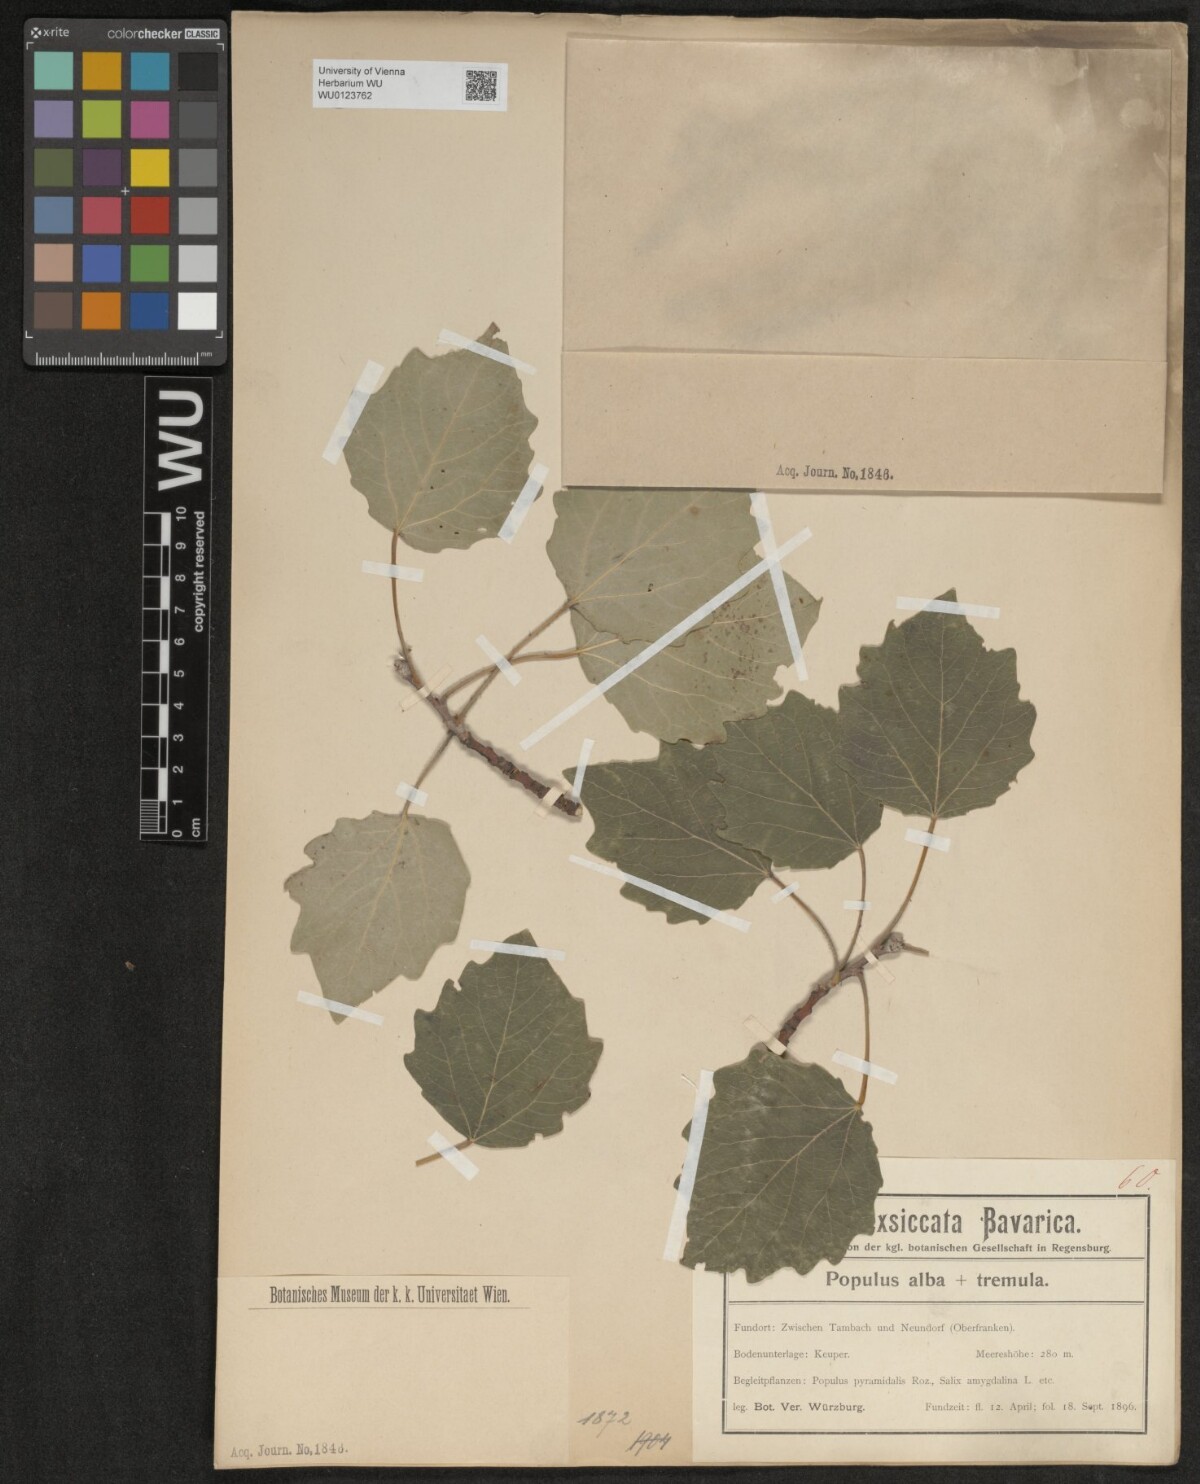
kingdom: Plantae
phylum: Tracheophyta
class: Magnoliopsida
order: Malpighiales
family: Salicaceae
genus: Populus
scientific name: Populus alba
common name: White poplar
